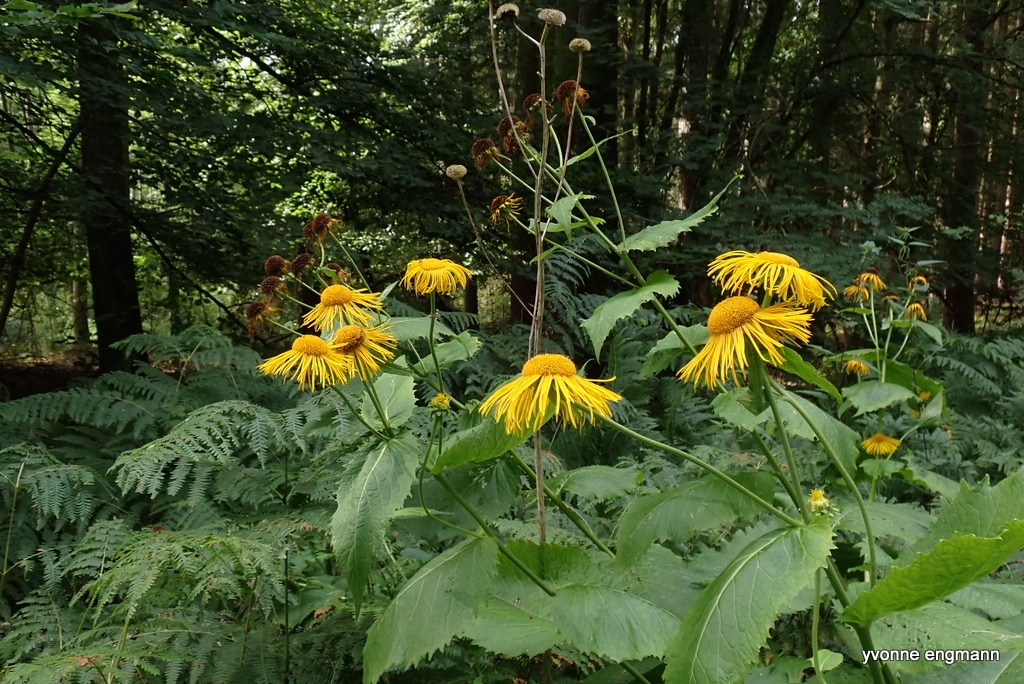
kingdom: Plantae
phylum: Tracheophyta
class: Magnoliopsida
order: Asterales
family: Asteraceae
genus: Telekia
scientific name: Telekia speciosa
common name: Tusindstråle
